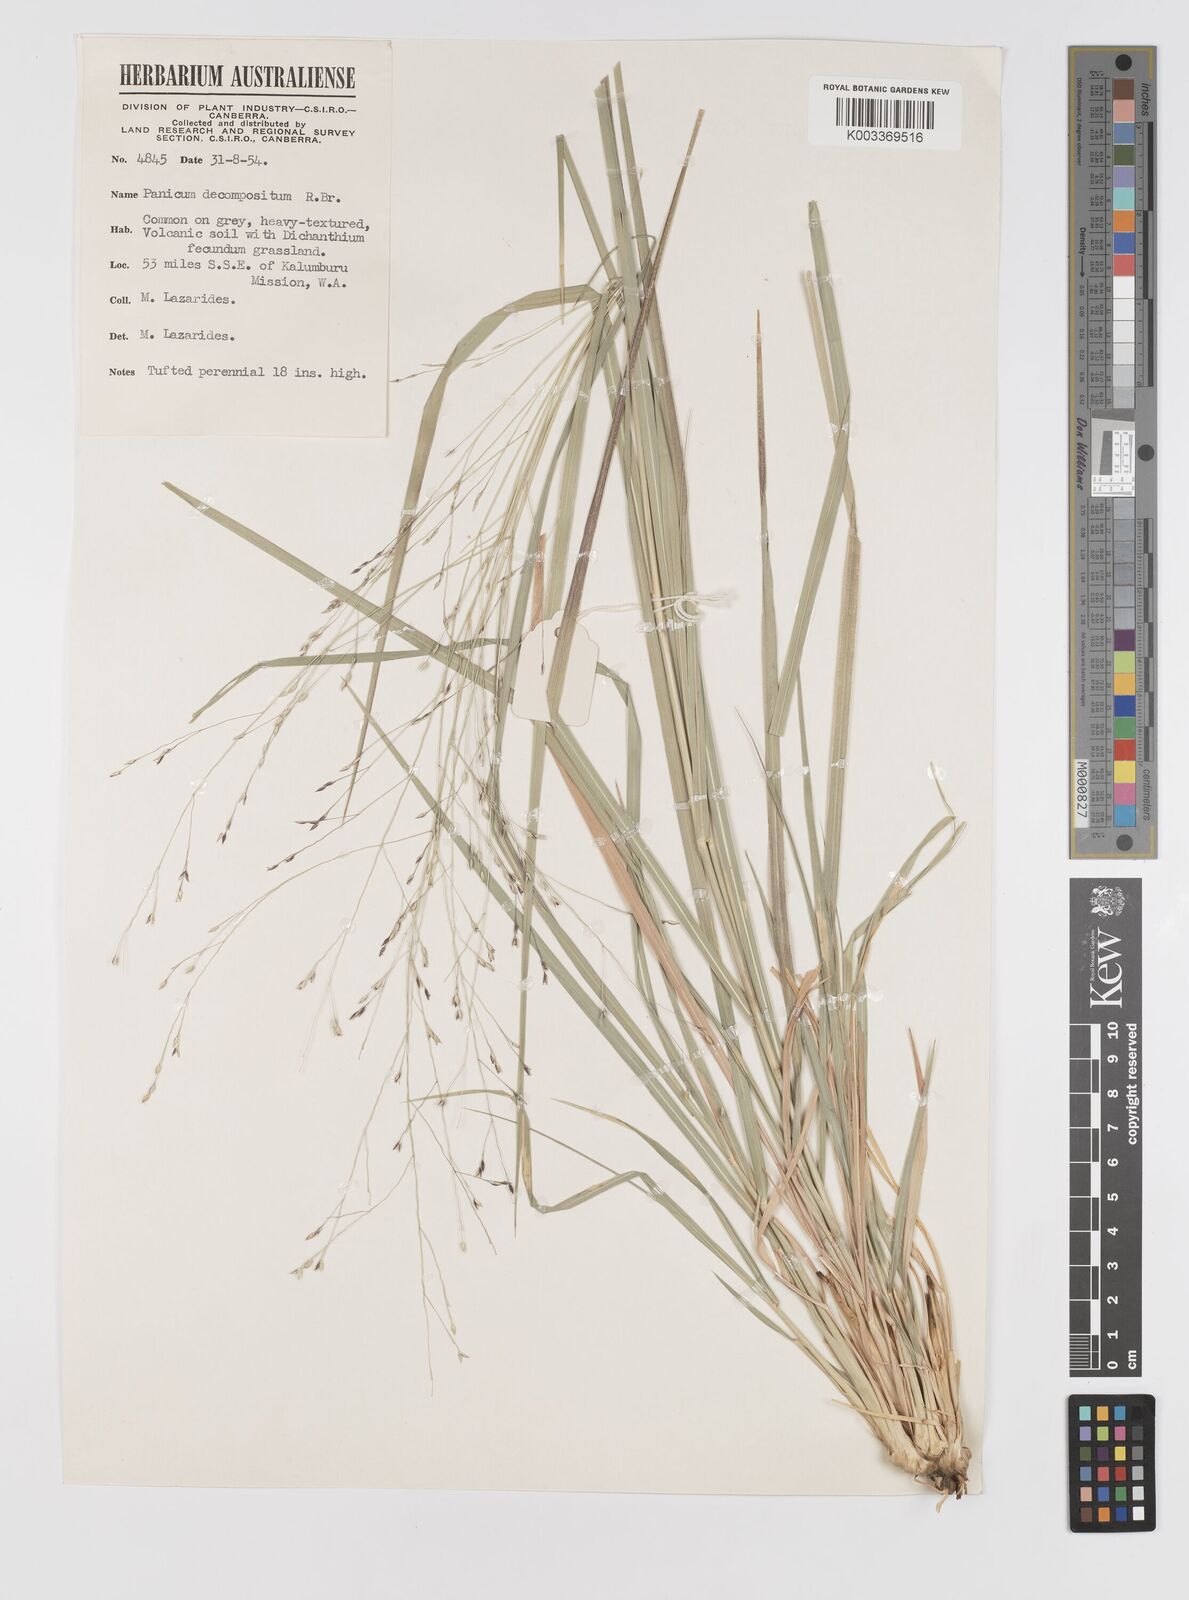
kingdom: Plantae
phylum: Tracheophyta
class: Liliopsida
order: Poales
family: Poaceae
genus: Panicum
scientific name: Panicum decompositum
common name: Australian millet
